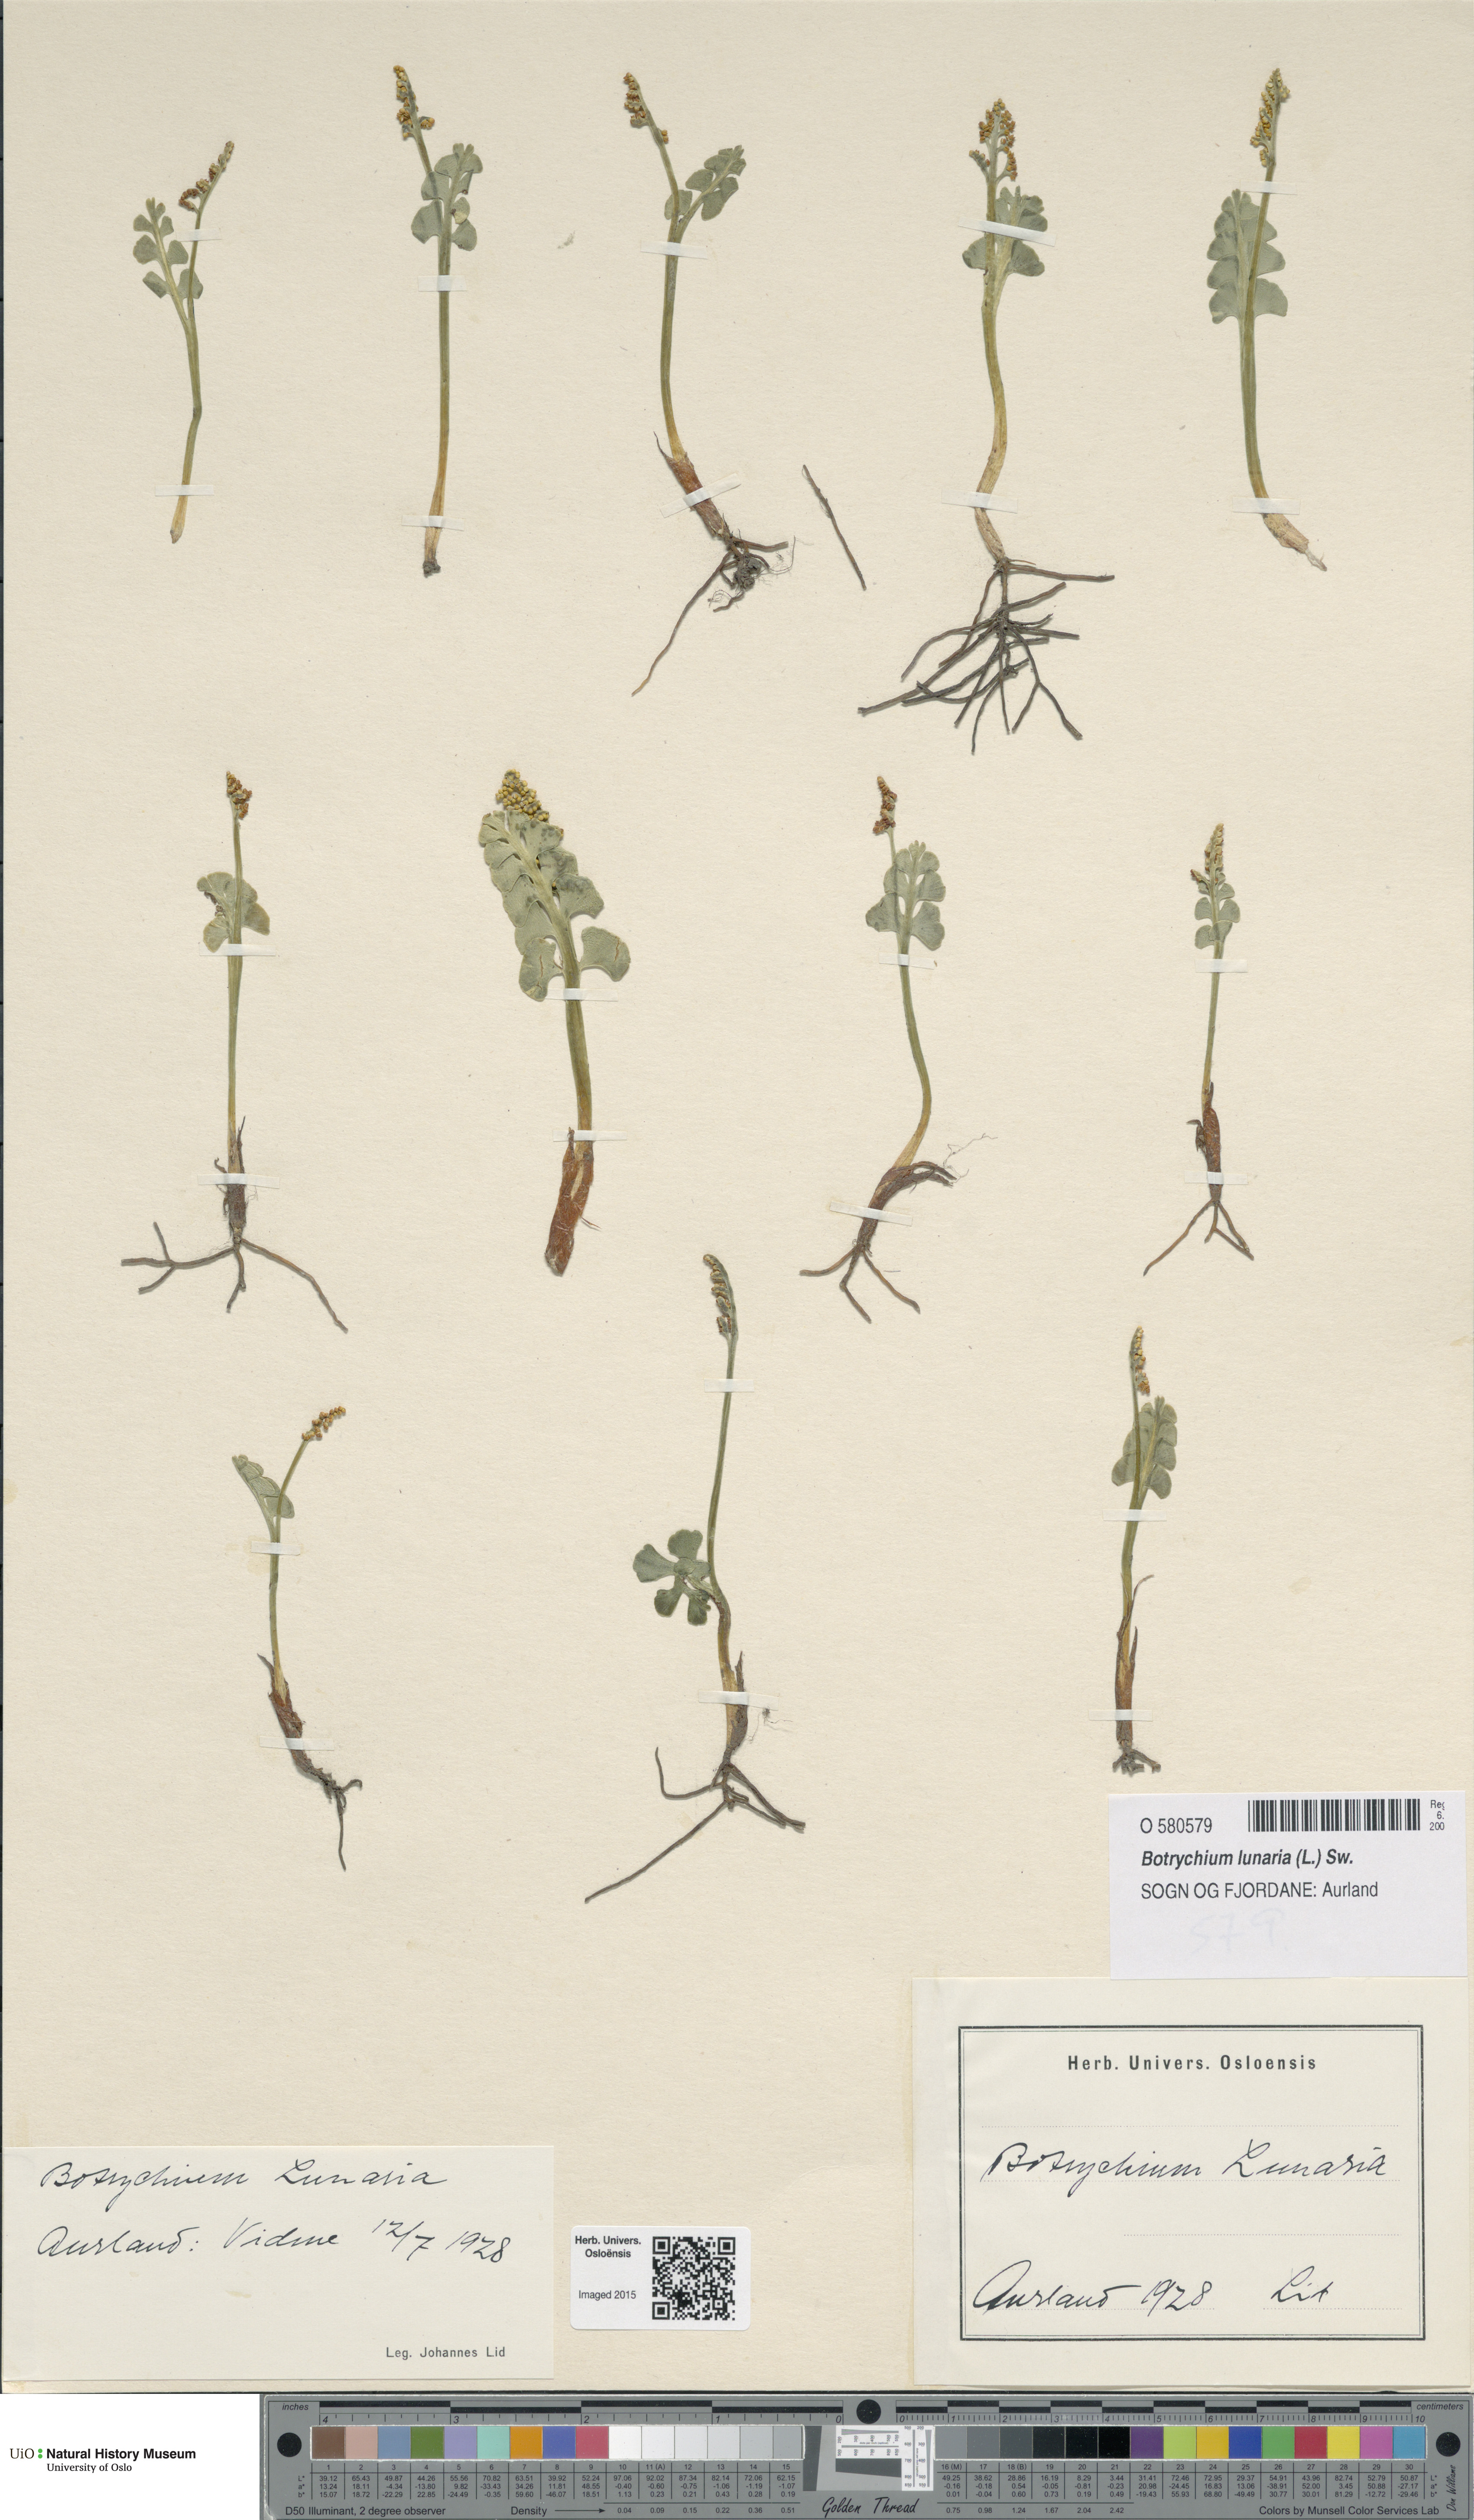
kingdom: Plantae
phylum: Tracheophyta
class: Polypodiopsida
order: Ophioglossales
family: Ophioglossaceae
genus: Botrychium
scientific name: Botrychium lunaria
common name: Moonwort
